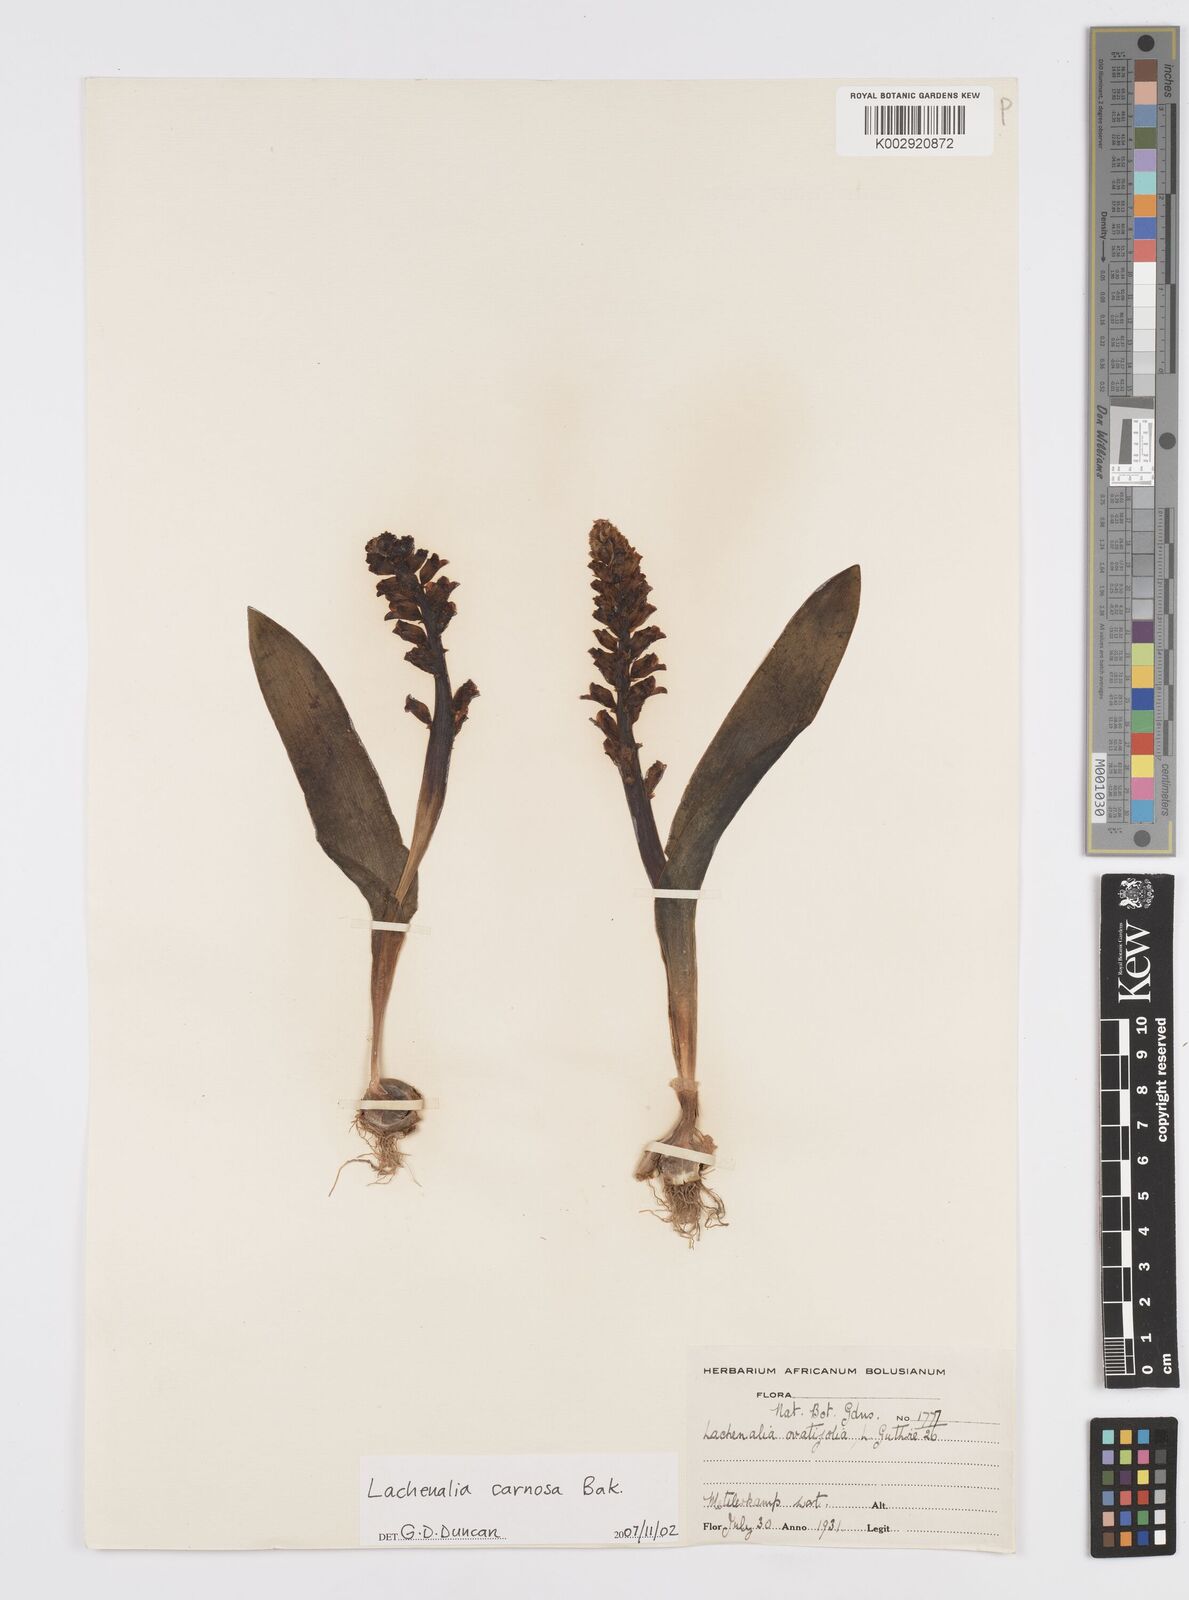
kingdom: Plantae
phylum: Tracheophyta
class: Liliopsida
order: Asparagales
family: Asparagaceae
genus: Lachenalia
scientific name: Lachenalia carnosa
